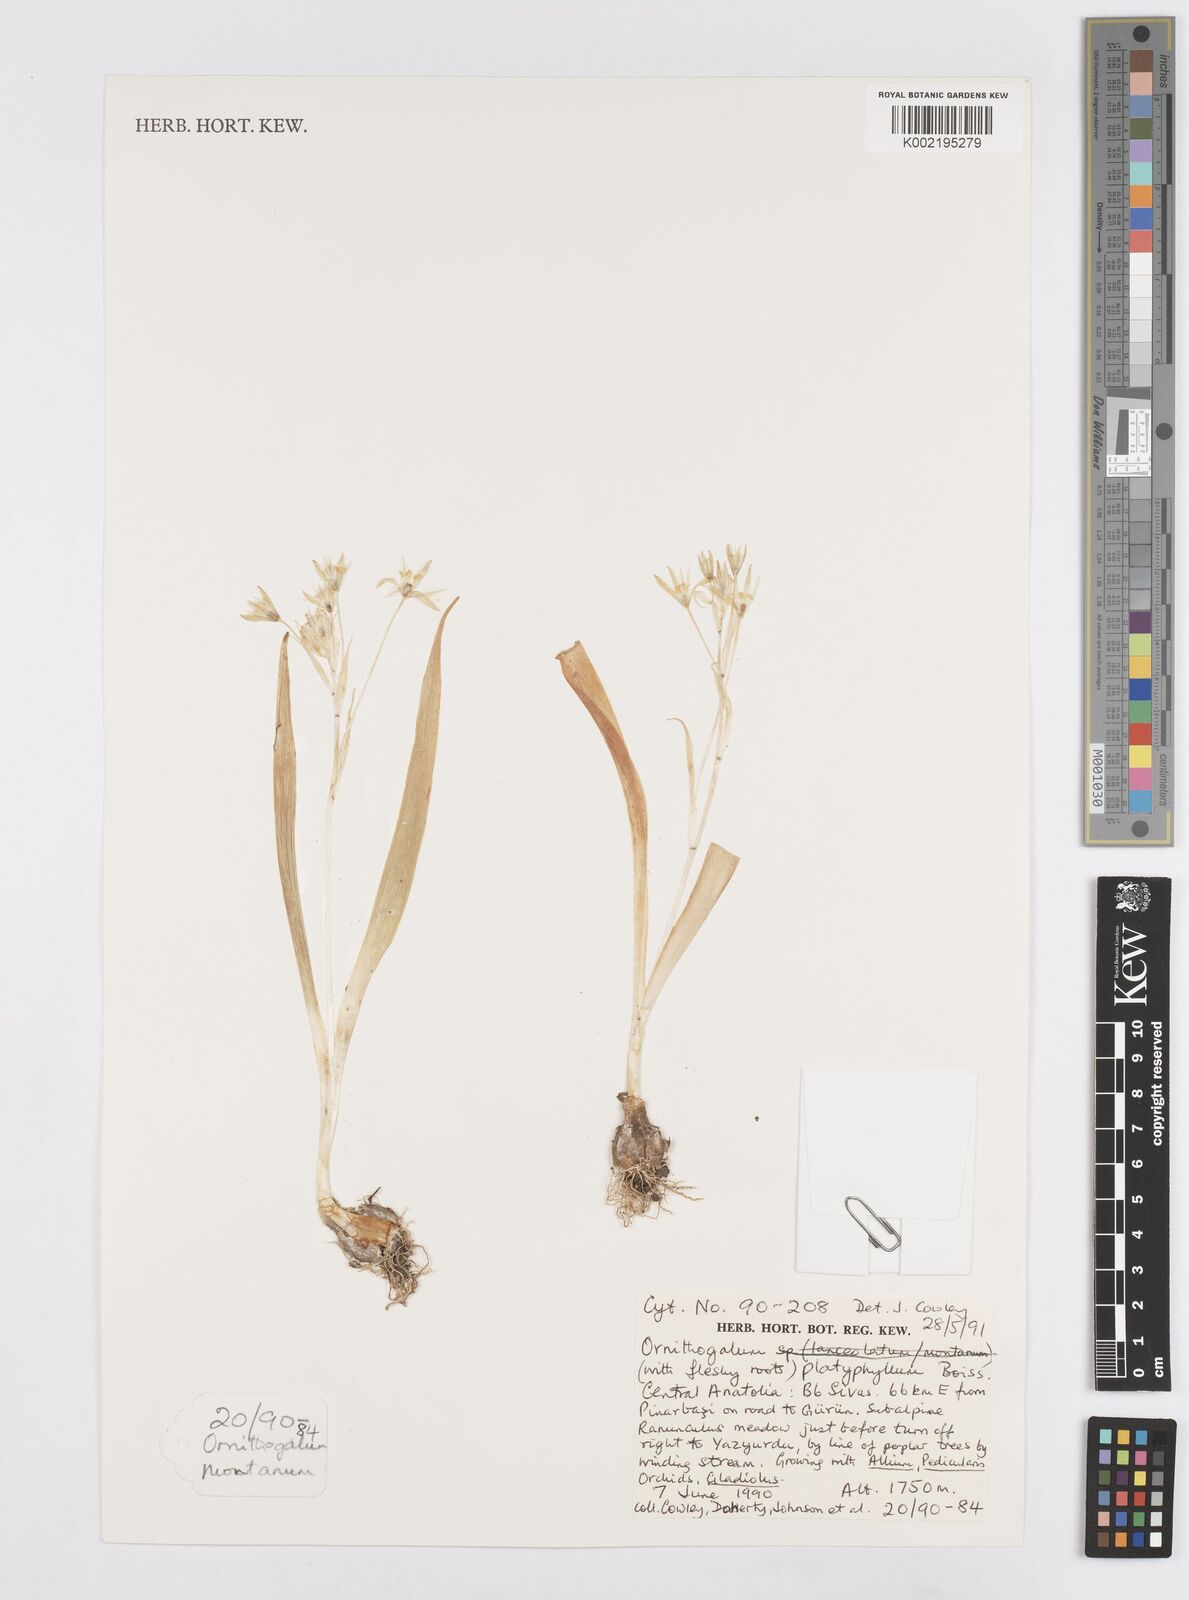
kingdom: Plantae
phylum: Tracheophyta
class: Liliopsida
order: Asparagales
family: Asparagaceae
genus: Ornithogalum
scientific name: Ornithogalum montanum
